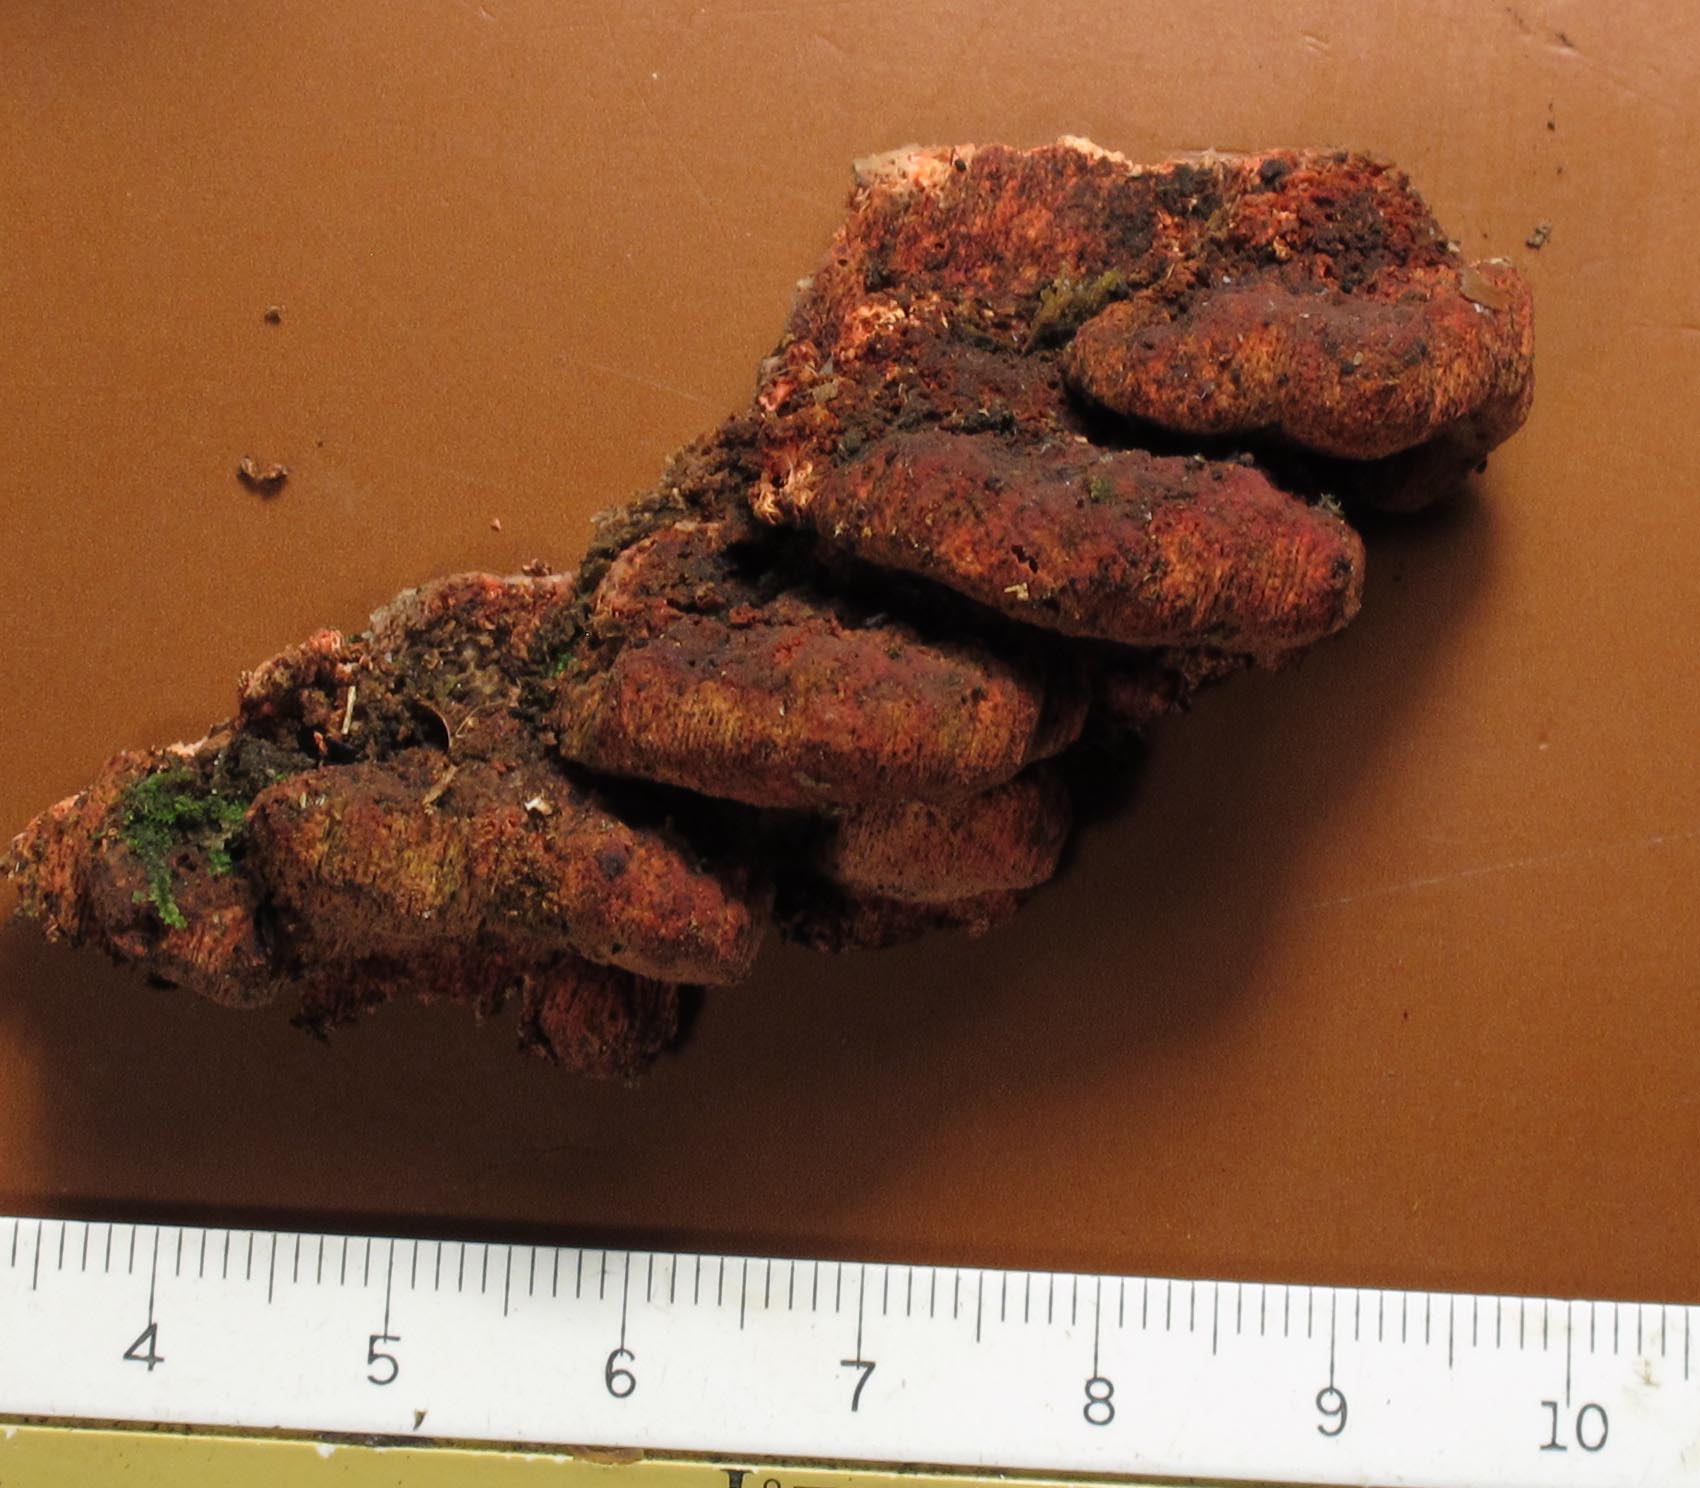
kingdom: Fungi
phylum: Basidiomycota
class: Agaricomycetes
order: Polyporales
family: Fomitopsidaceae
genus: Neoantrodia
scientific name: Neoantrodia serialis
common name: række-sejporesvamp
